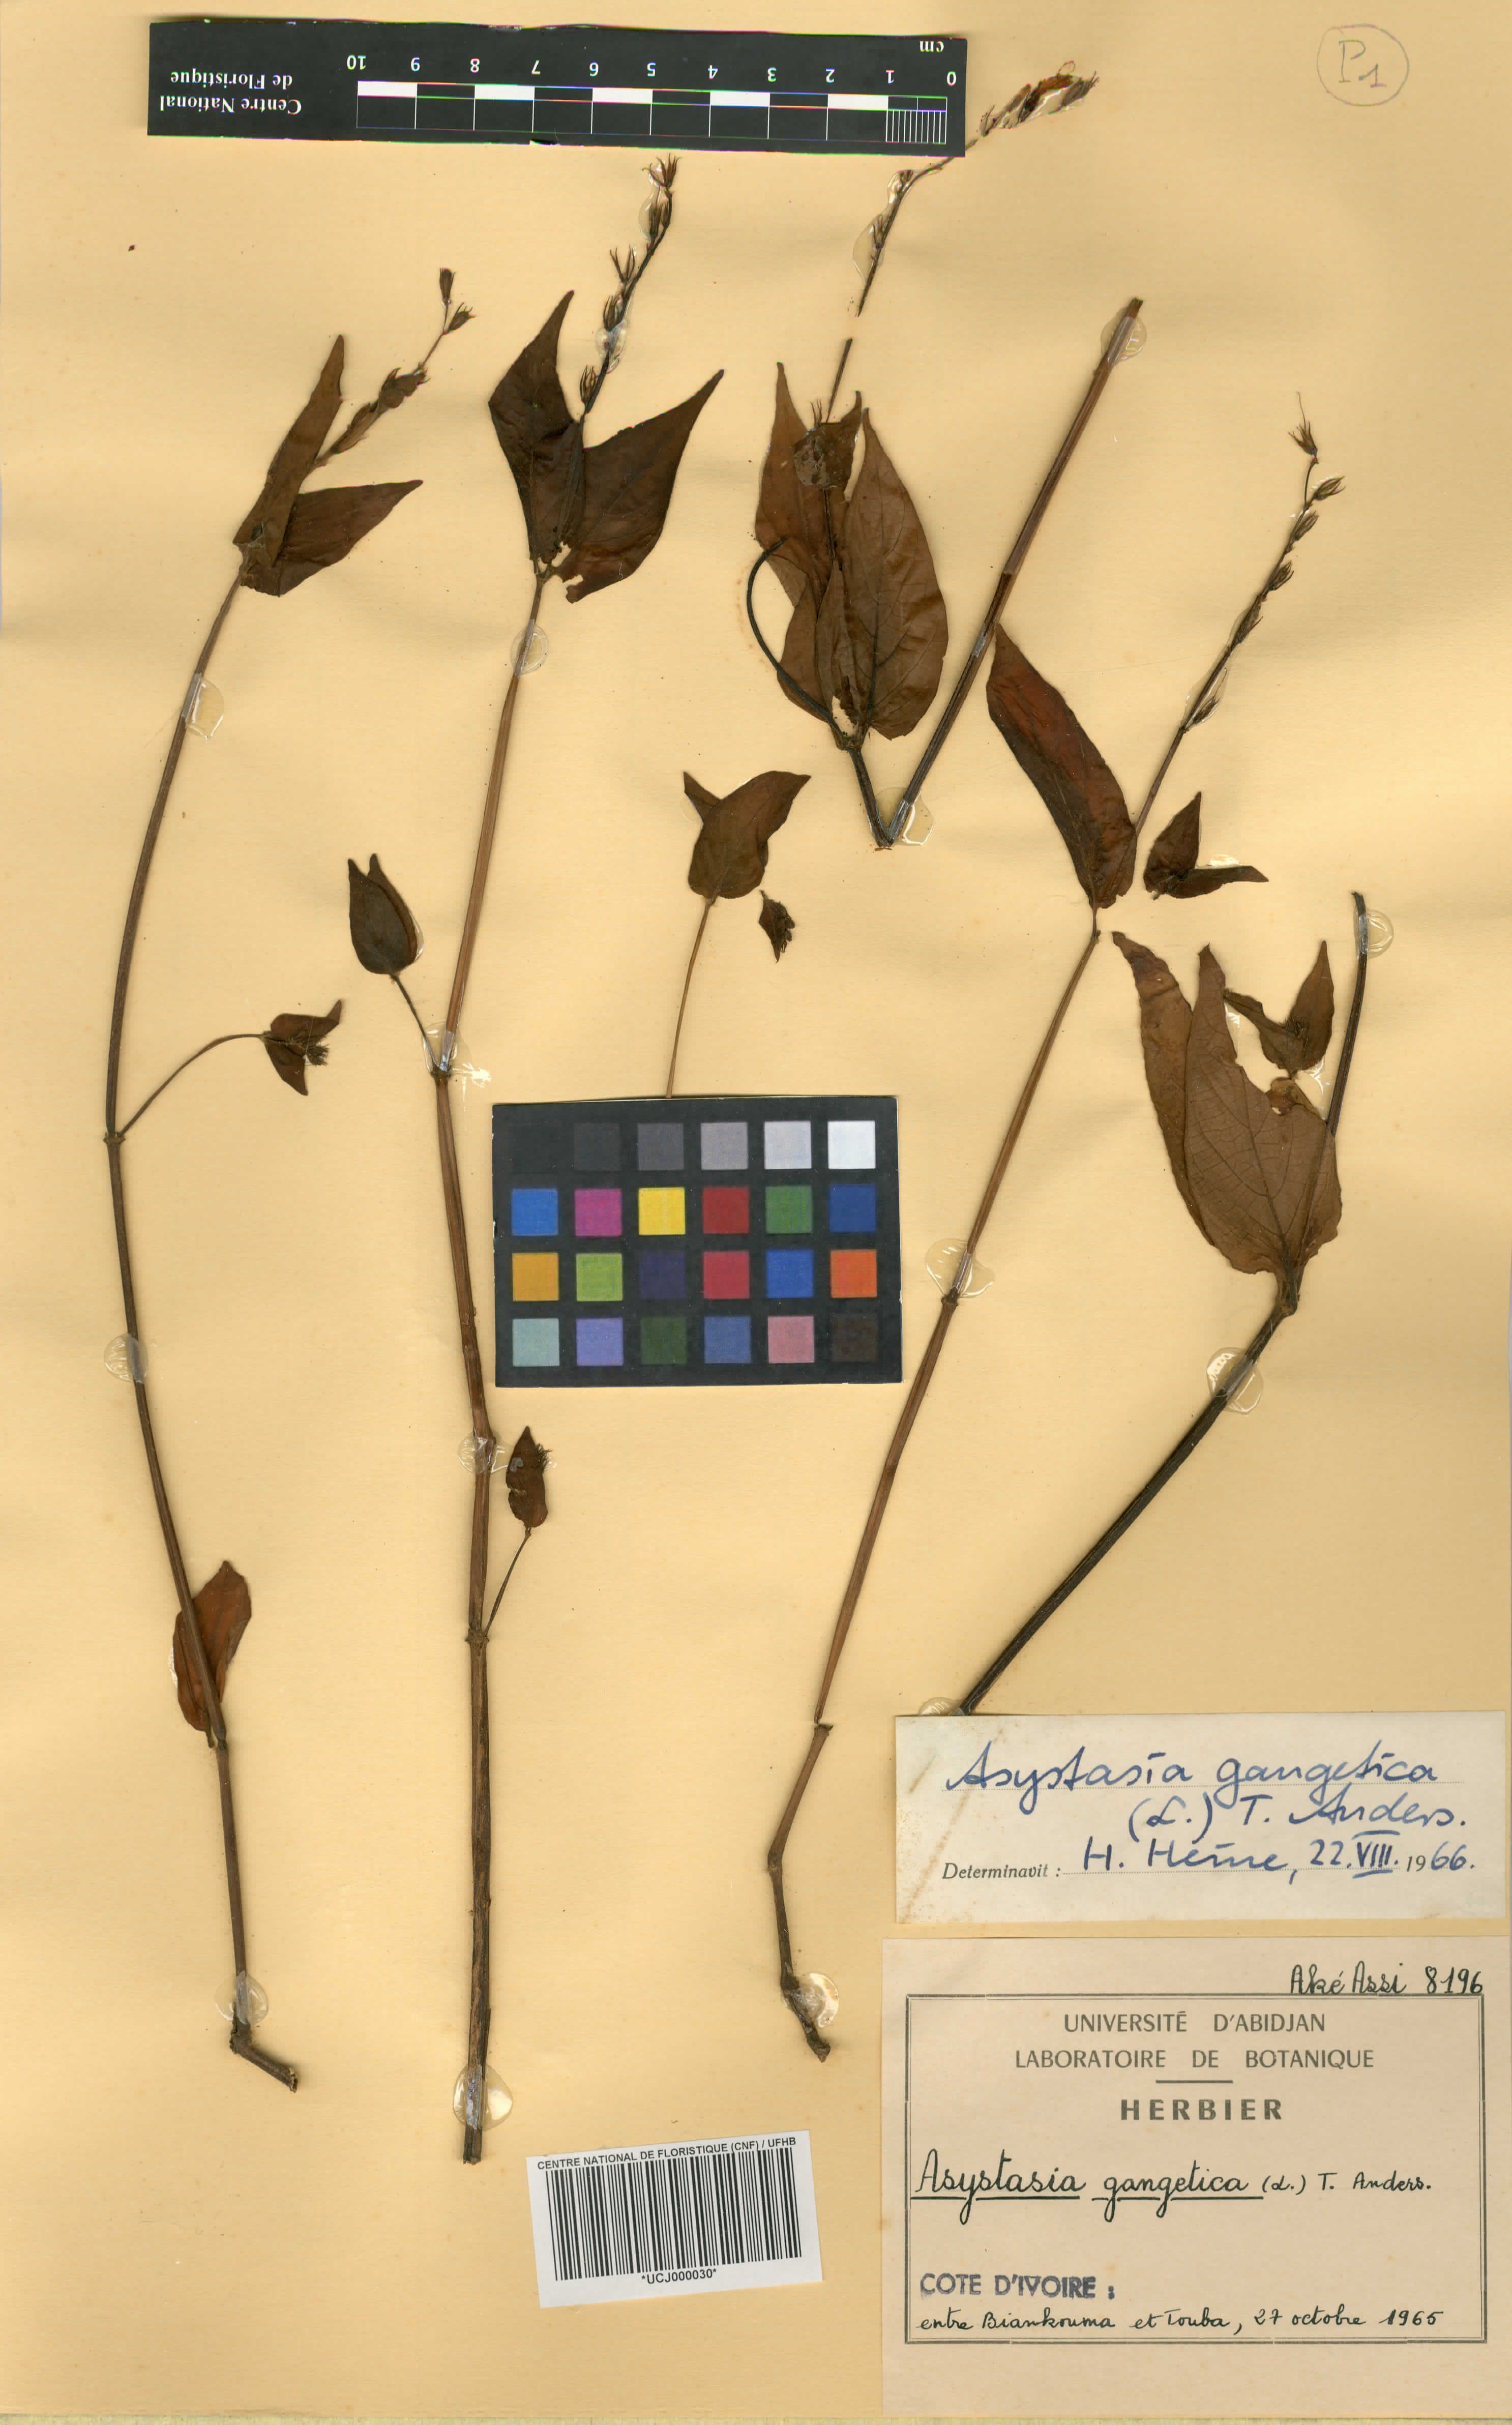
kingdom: Plantae
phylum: Tracheophyta
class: Magnoliopsida
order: Lamiales
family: Acanthaceae
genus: Asystasia
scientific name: Asystasia gangetica
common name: Chinese violet
